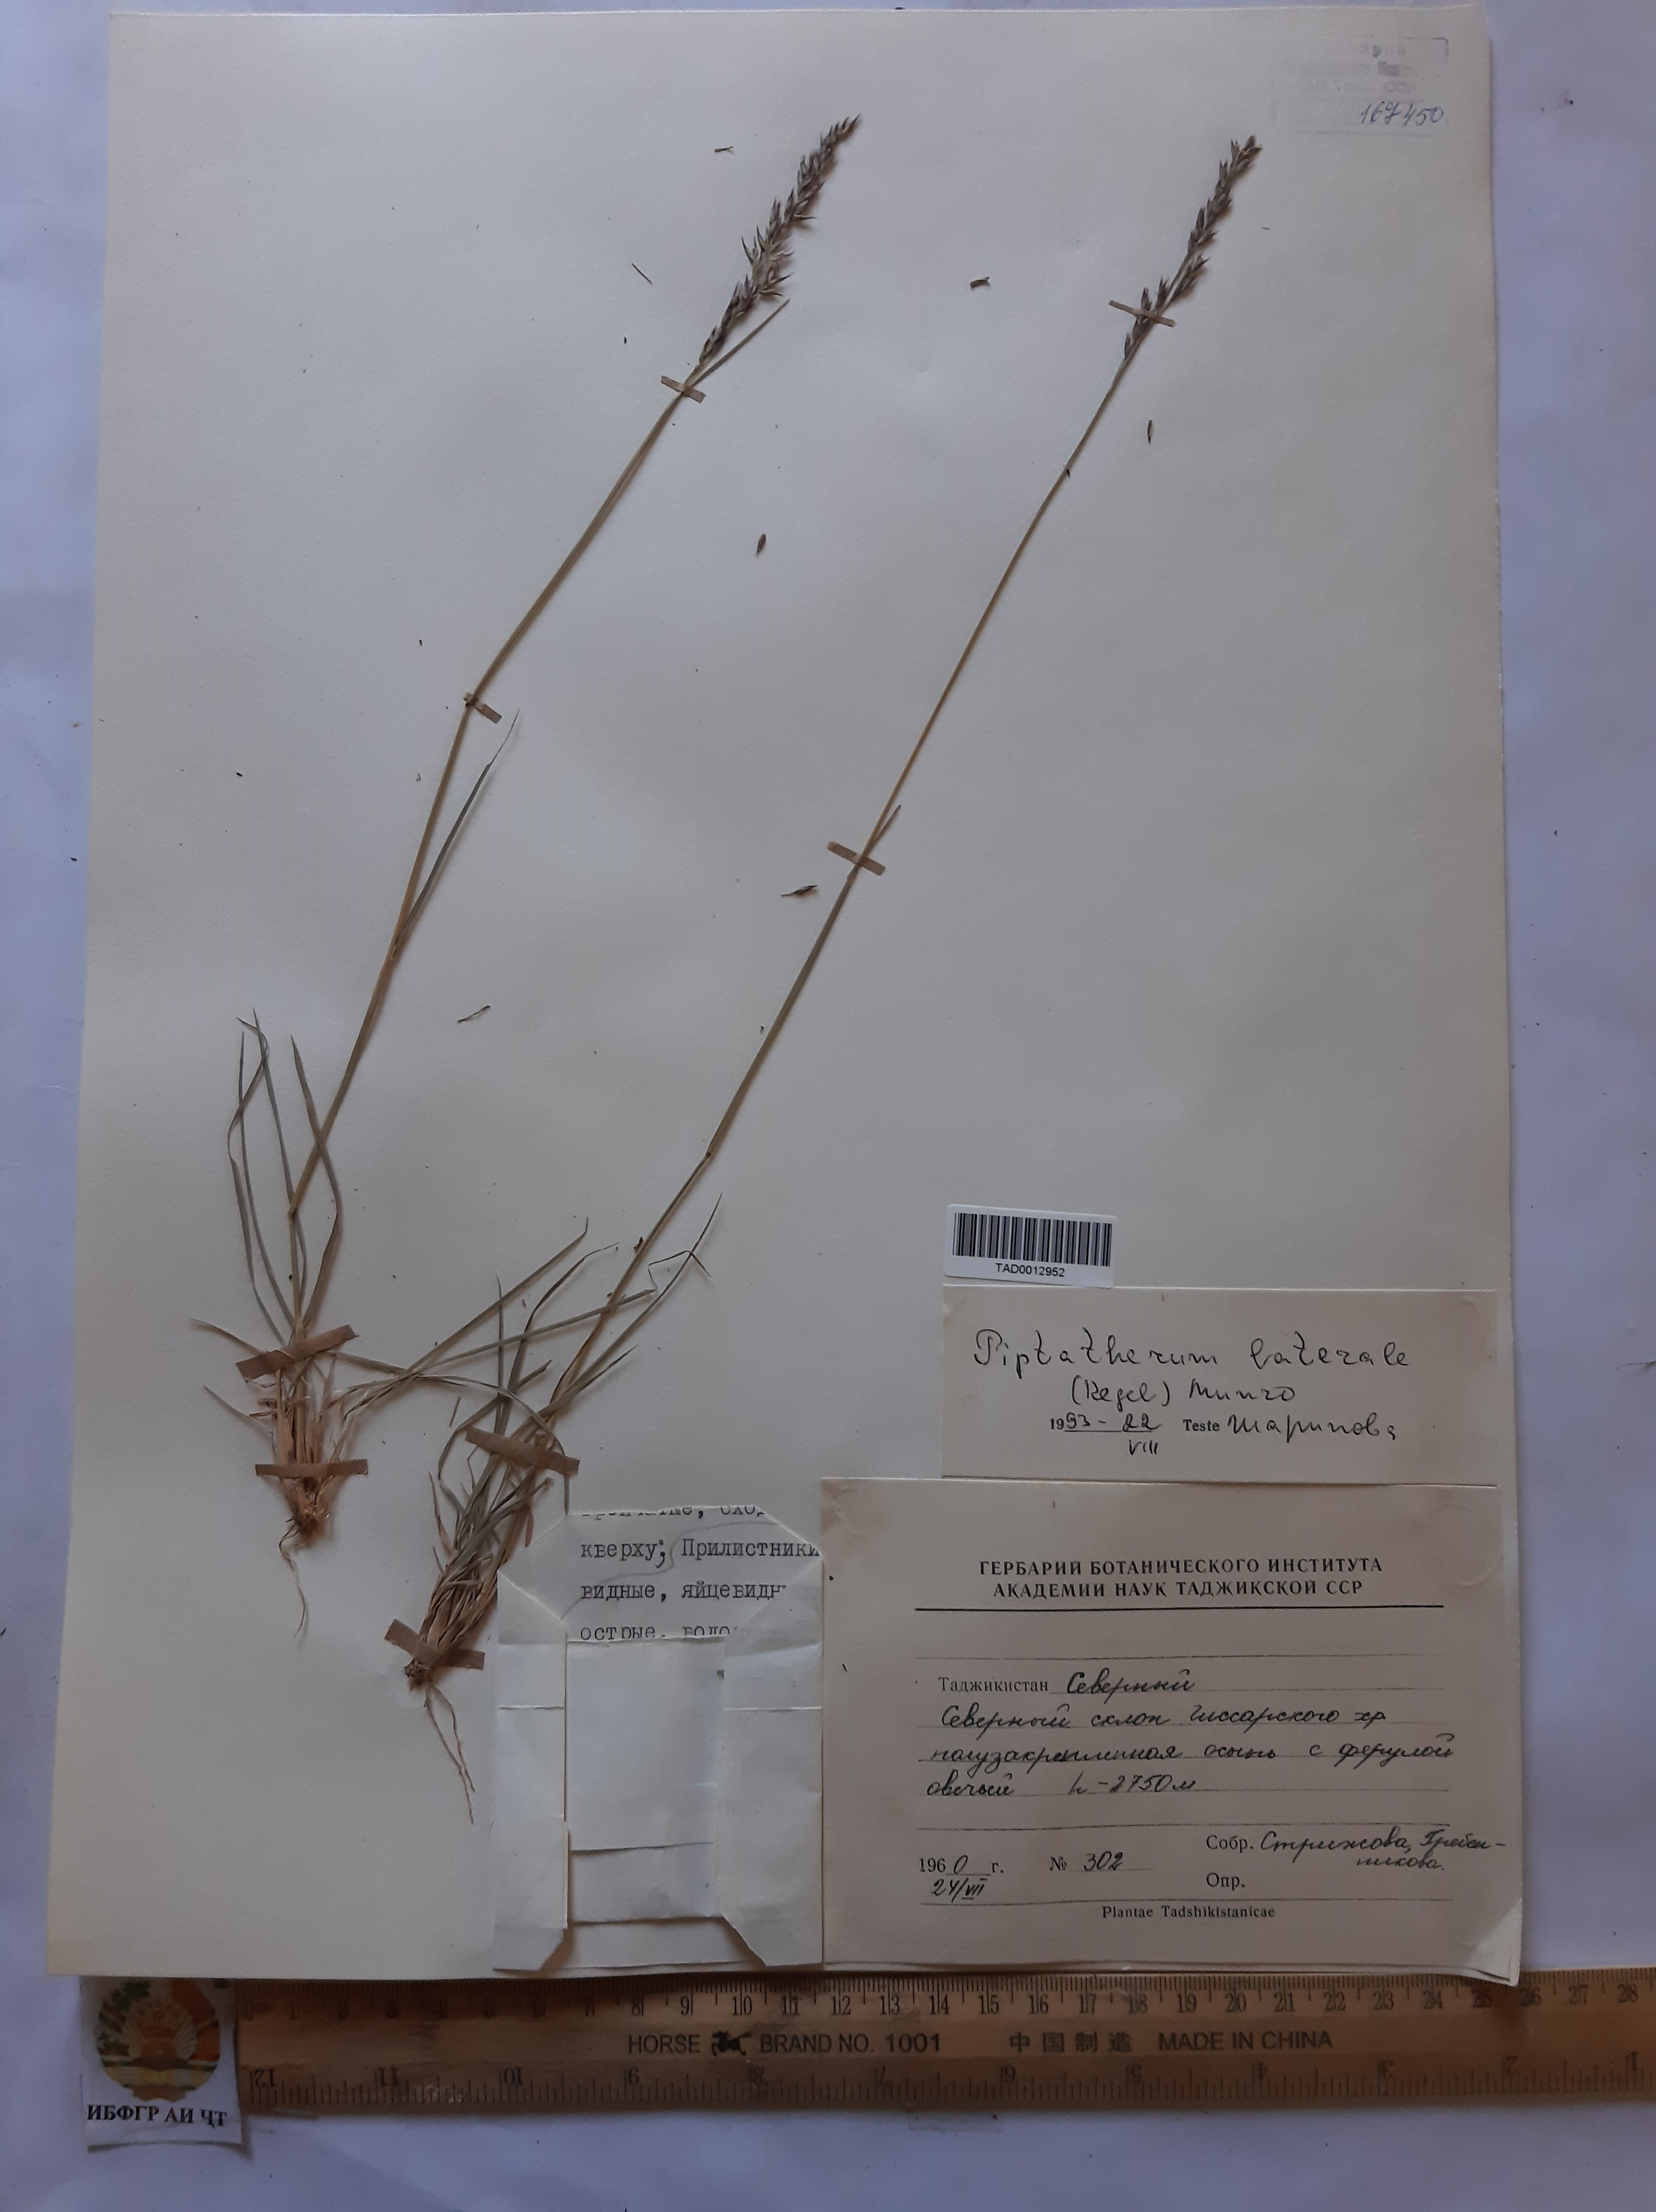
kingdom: Plantae
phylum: Tracheophyta
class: Liliopsida
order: Poales
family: Poaceae
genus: Piptatherum
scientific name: Piptatherum laterale
